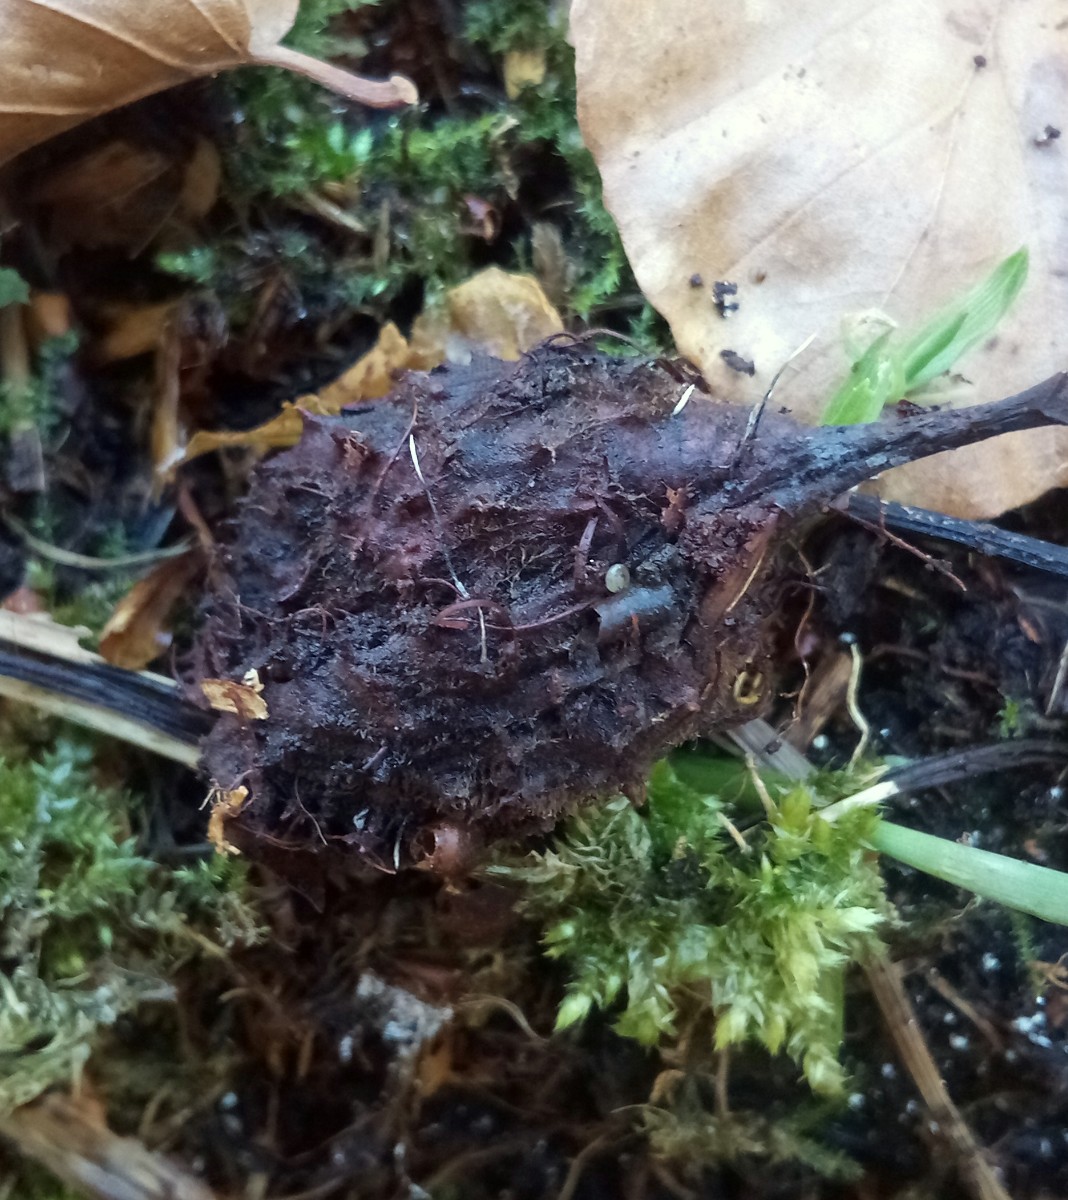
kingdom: Fungi
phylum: Ascomycota
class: Sordariomycetes
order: Xylariales
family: Xylariaceae
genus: Xylaria
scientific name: Xylaria carpophila
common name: bogskål-stødsvamp
